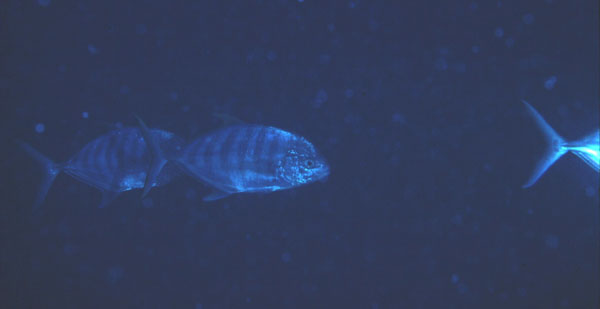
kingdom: Animalia
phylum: Chordata
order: Perciformes
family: Carangidae
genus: Carangoides
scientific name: Carangoides ferdau
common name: Blue trevally
